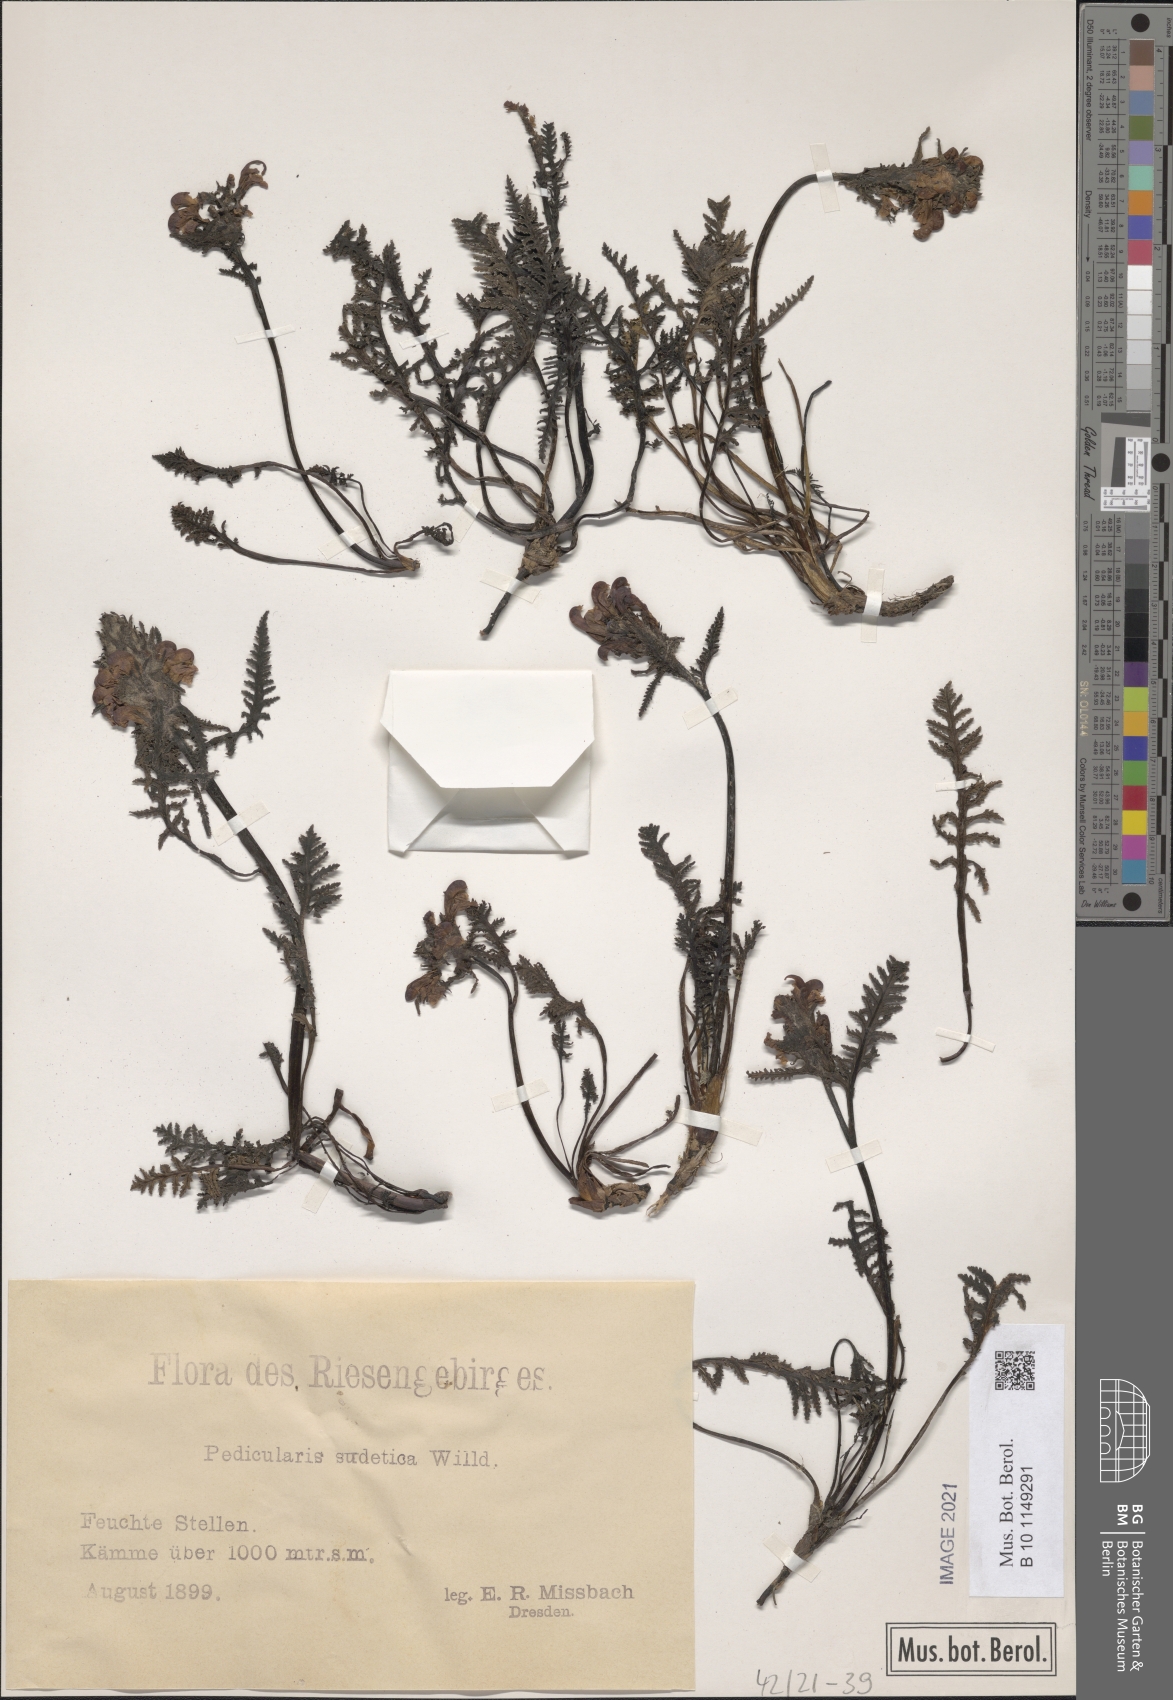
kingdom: Plantae
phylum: Tracheophyta
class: Magnoliopsida
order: Lamiales
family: Orobanchaceae
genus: Pedicularis
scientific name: Pedicularis sudetica
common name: Sudeten lousewort
